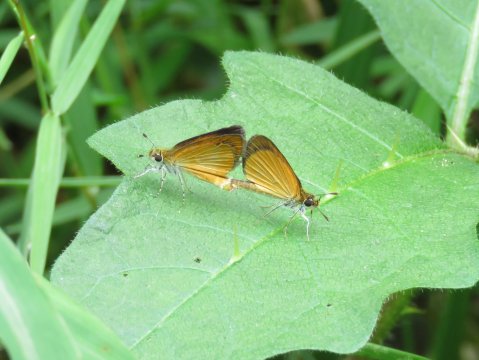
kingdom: Animalia
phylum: Arthropoda
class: Insecta
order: Lepidoptera
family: Hesperiidae
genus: Ancyloxypha
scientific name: Ancyloxypha numitor
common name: Least Skipper
